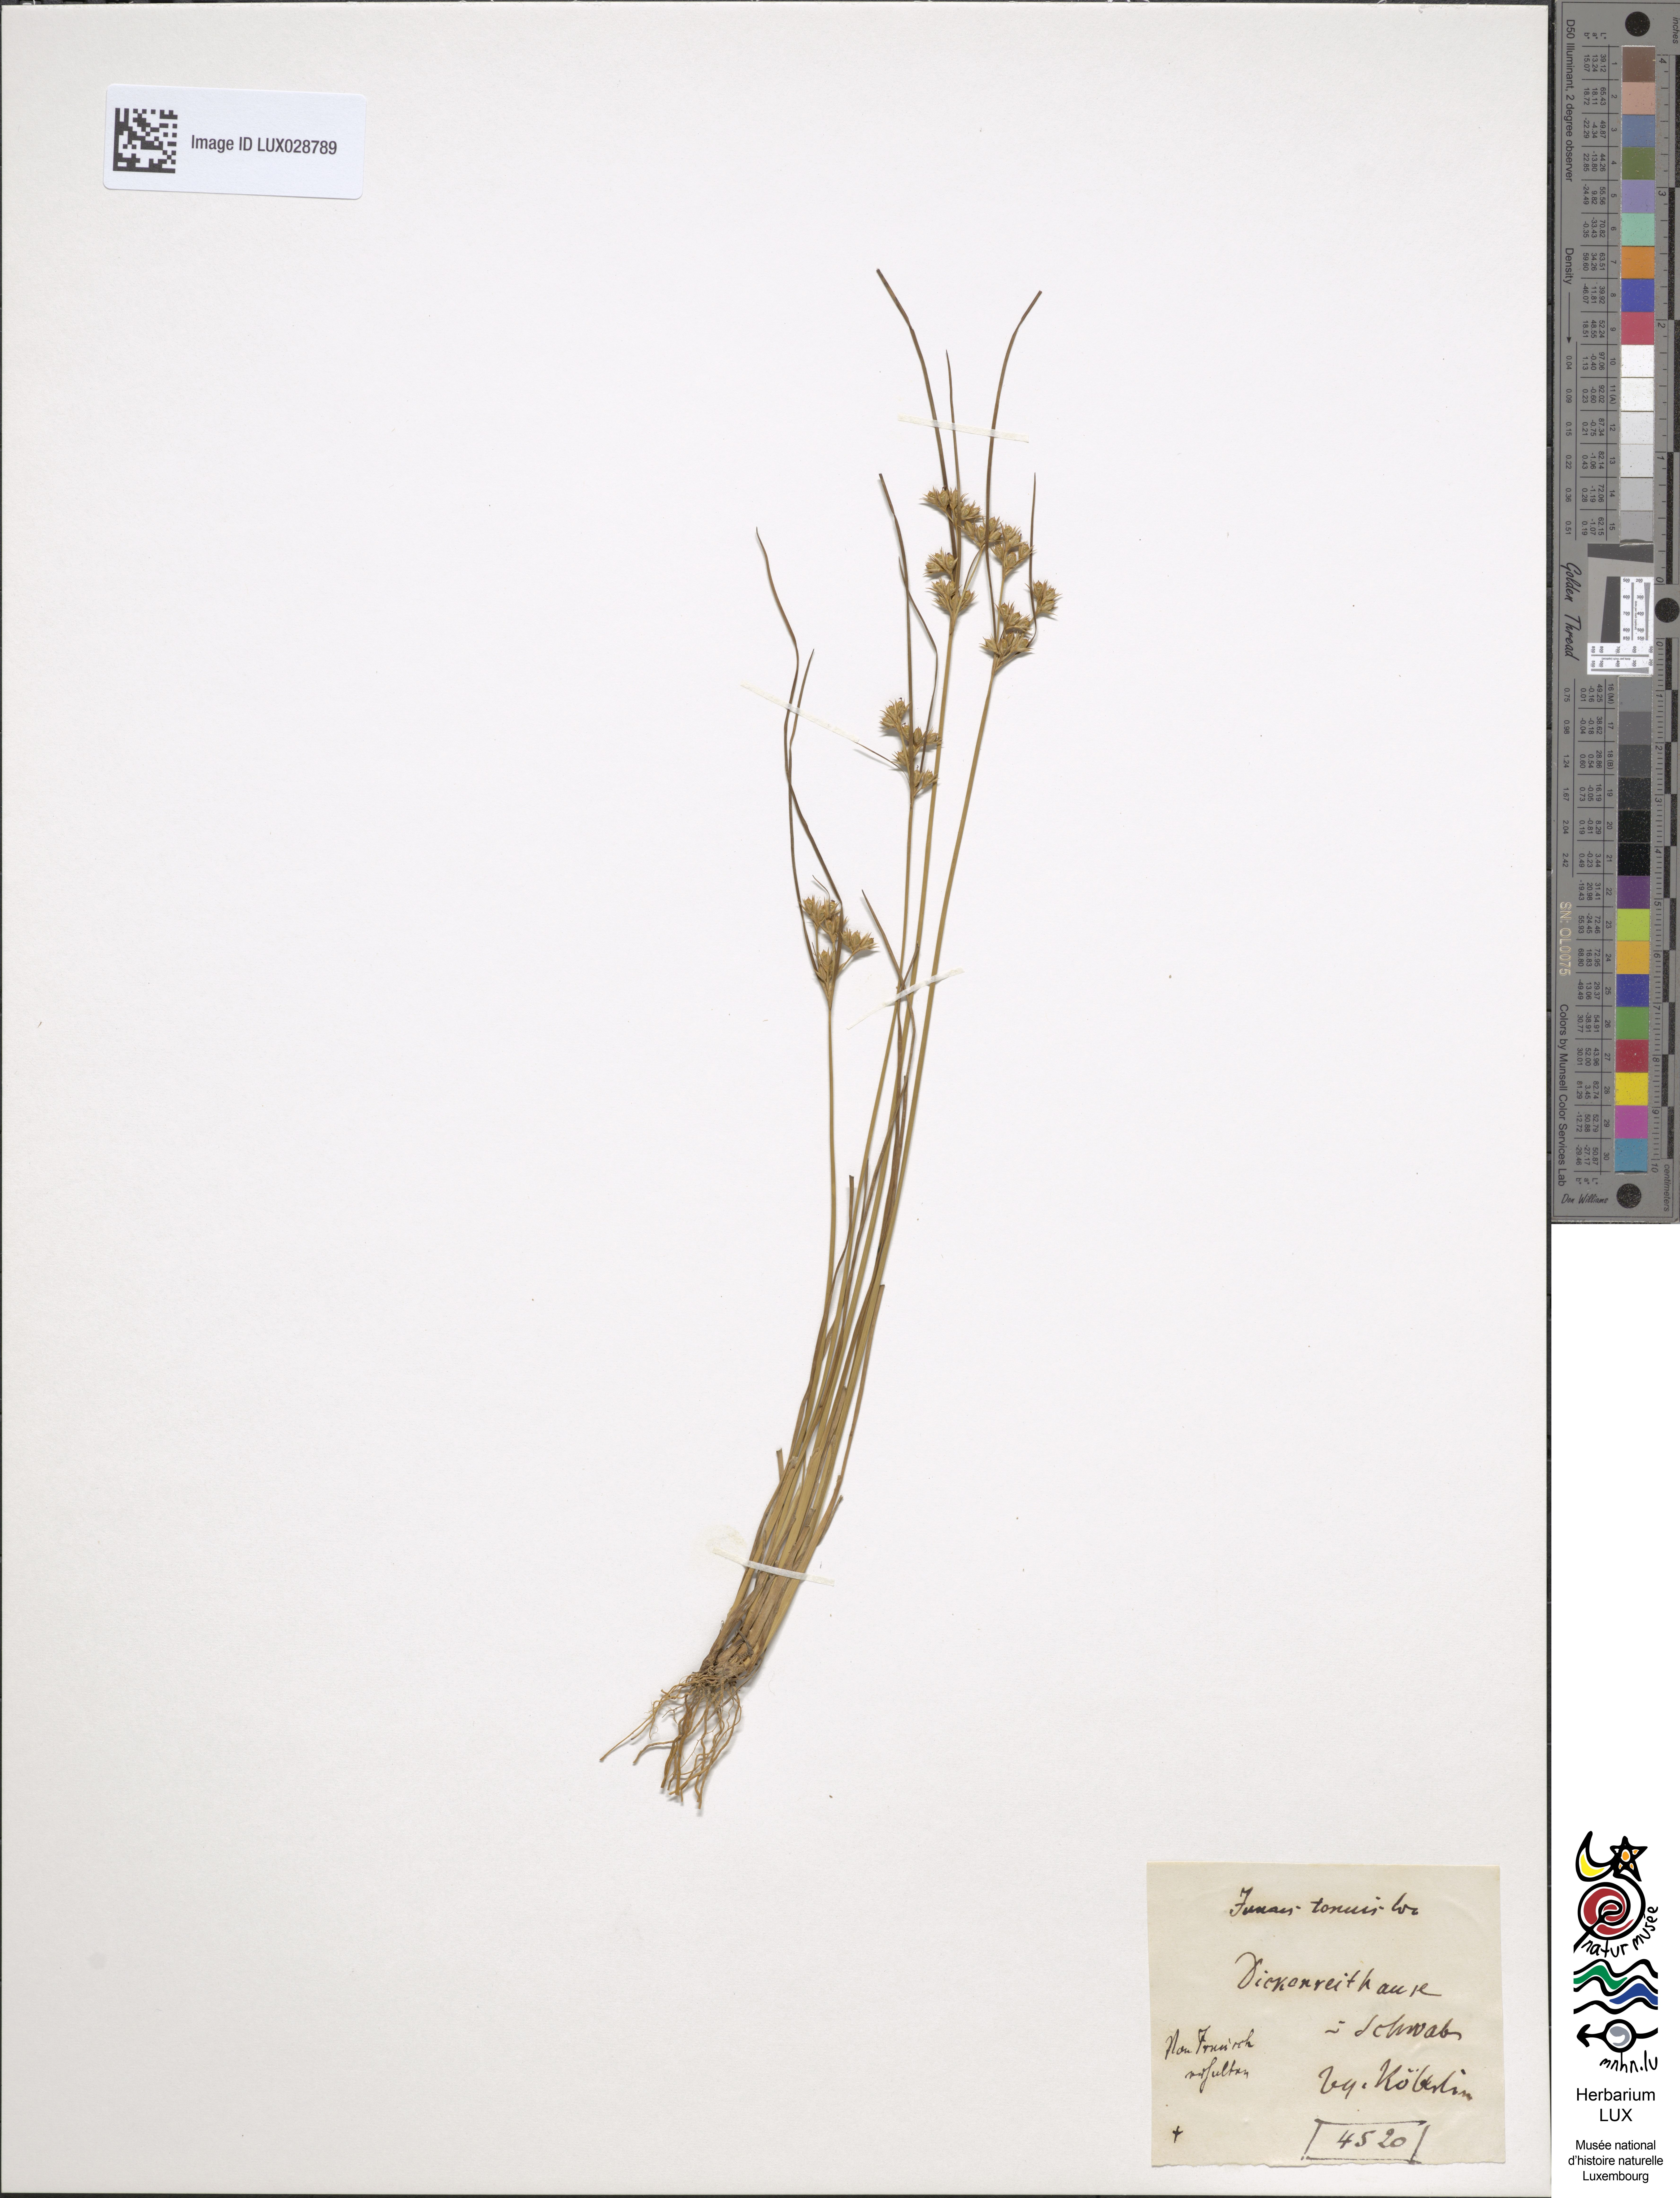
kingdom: Plantae
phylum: Tracheophyta
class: Liliopsida
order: Poales
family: Juncaceae
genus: Juncus
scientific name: Juncus tenuis
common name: Slender rush
